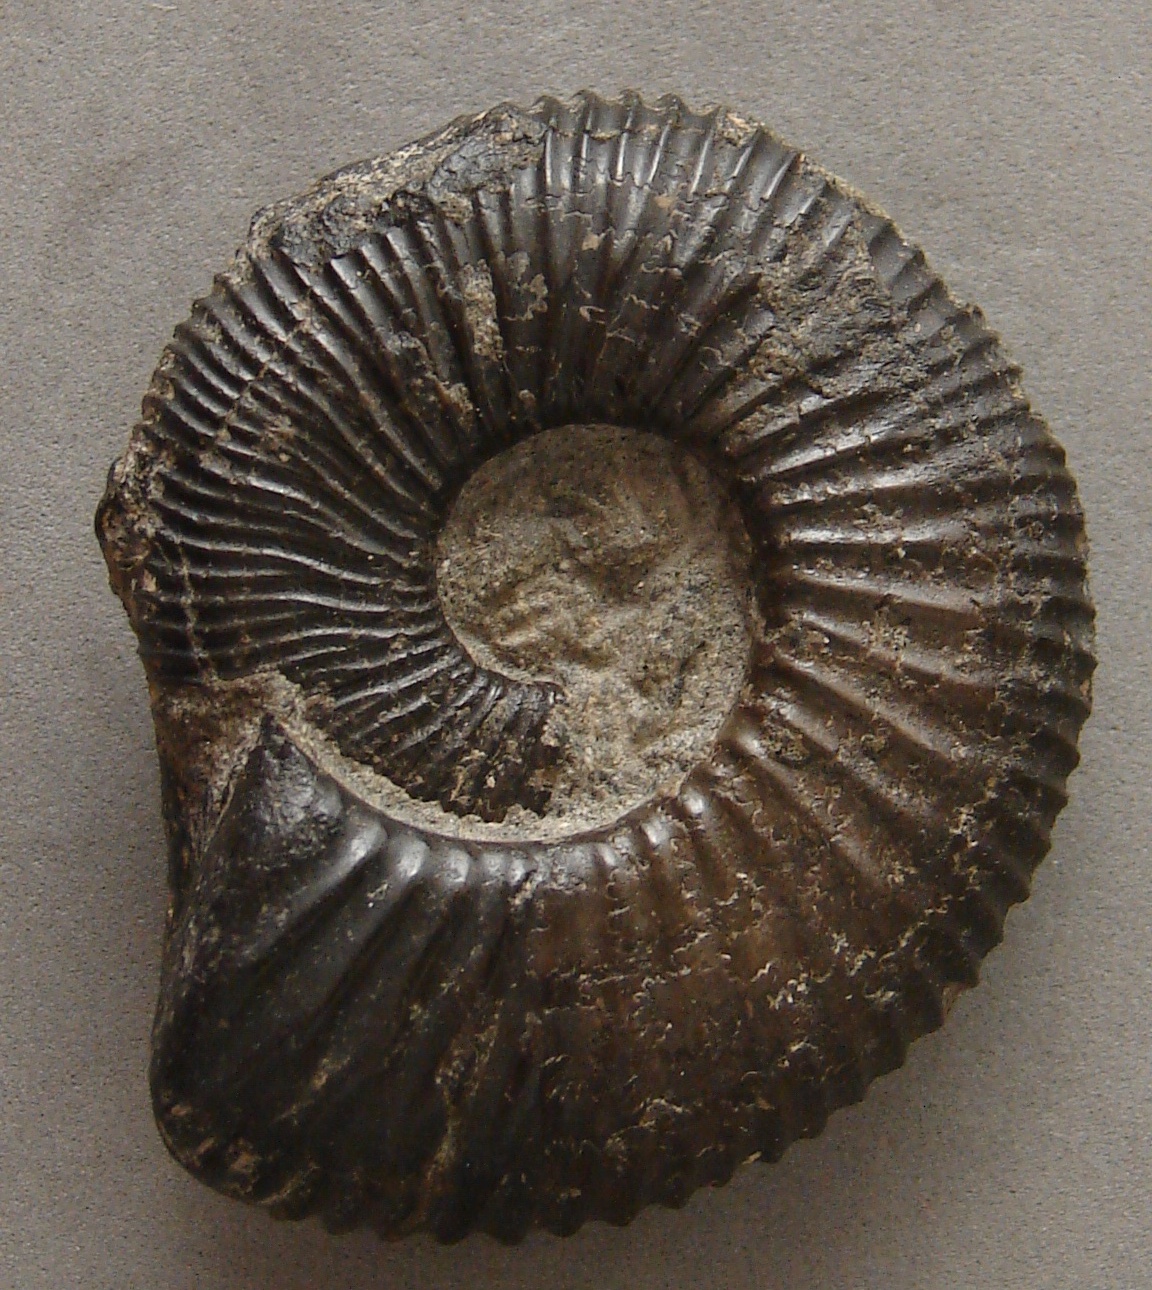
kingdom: Animalia
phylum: Mollusca
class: Cephalopoda
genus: Ammonites
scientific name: Ammonites
